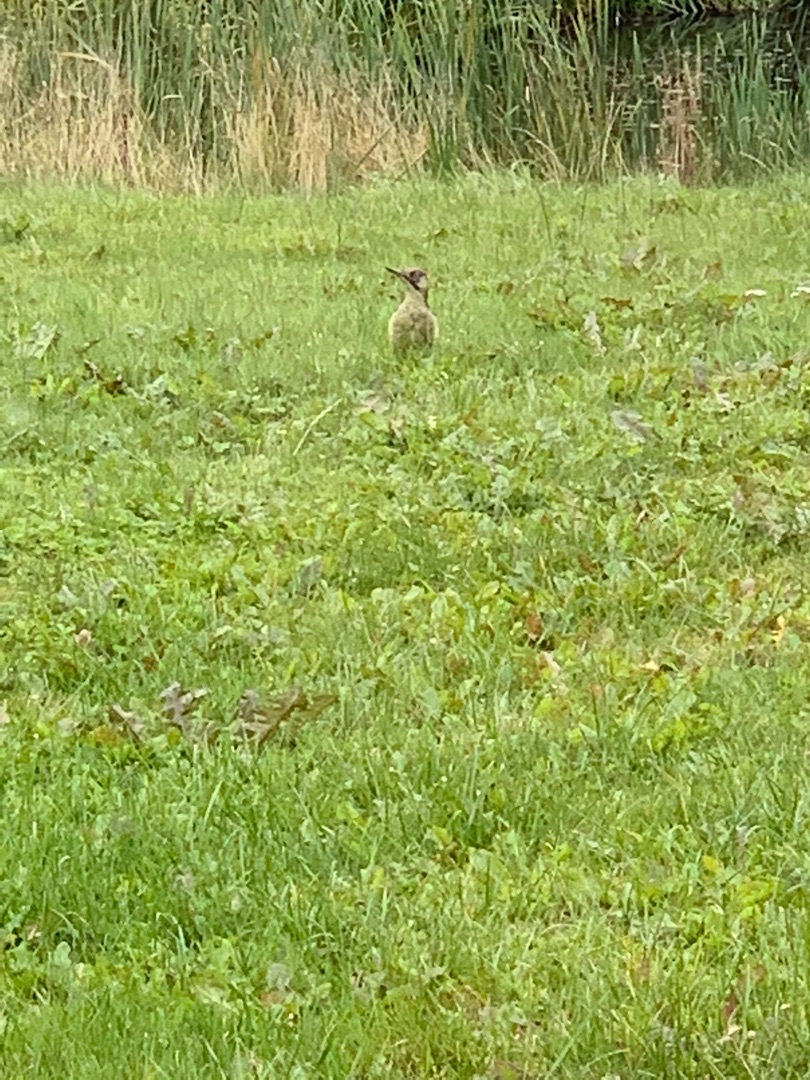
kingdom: Animalia
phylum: Chordata
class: Aves
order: Piciformes
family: Picidae
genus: Picus
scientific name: Picus viridis
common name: Grønspætte
